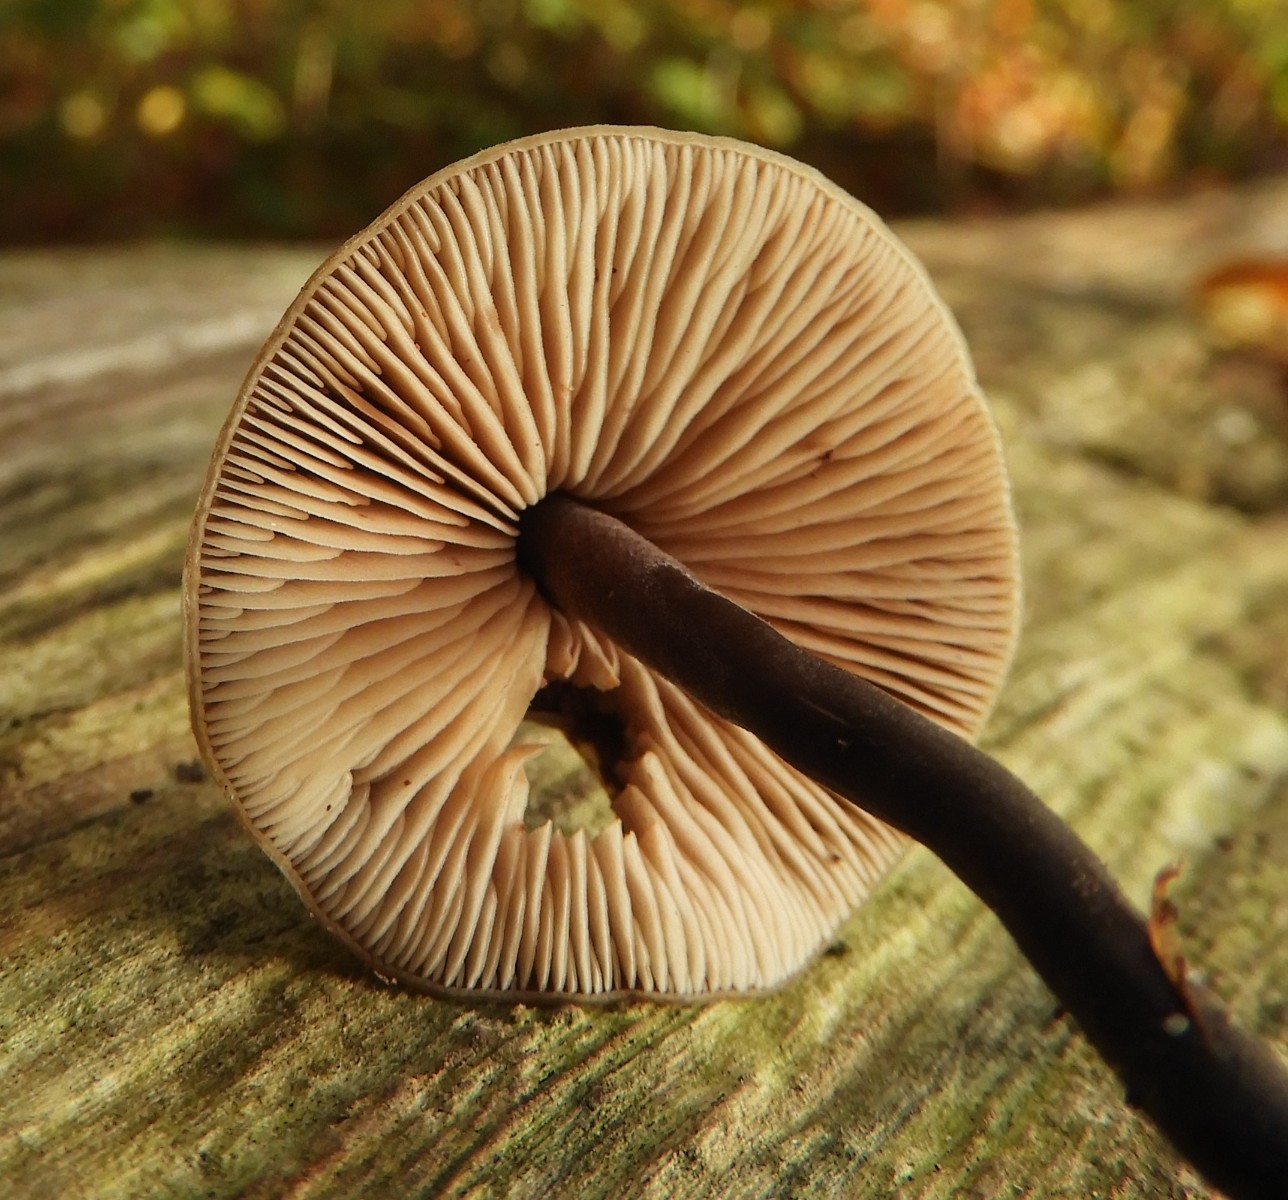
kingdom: Fungi
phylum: Basidiomycota
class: Agaricomycetes
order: Agaricales
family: Macrocystidiaceae
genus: Macrocystidia
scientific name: Macrocystidia cucumis
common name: agurkehat
